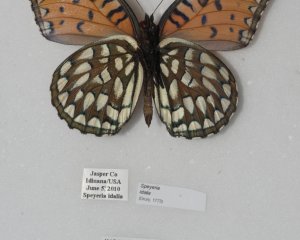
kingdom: Animalia
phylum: Arthropoda
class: Insecta
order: Lepidoptera
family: Nymphalidae
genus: Speyeria
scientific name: Speyeria idalia
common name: Regal Fritillary
